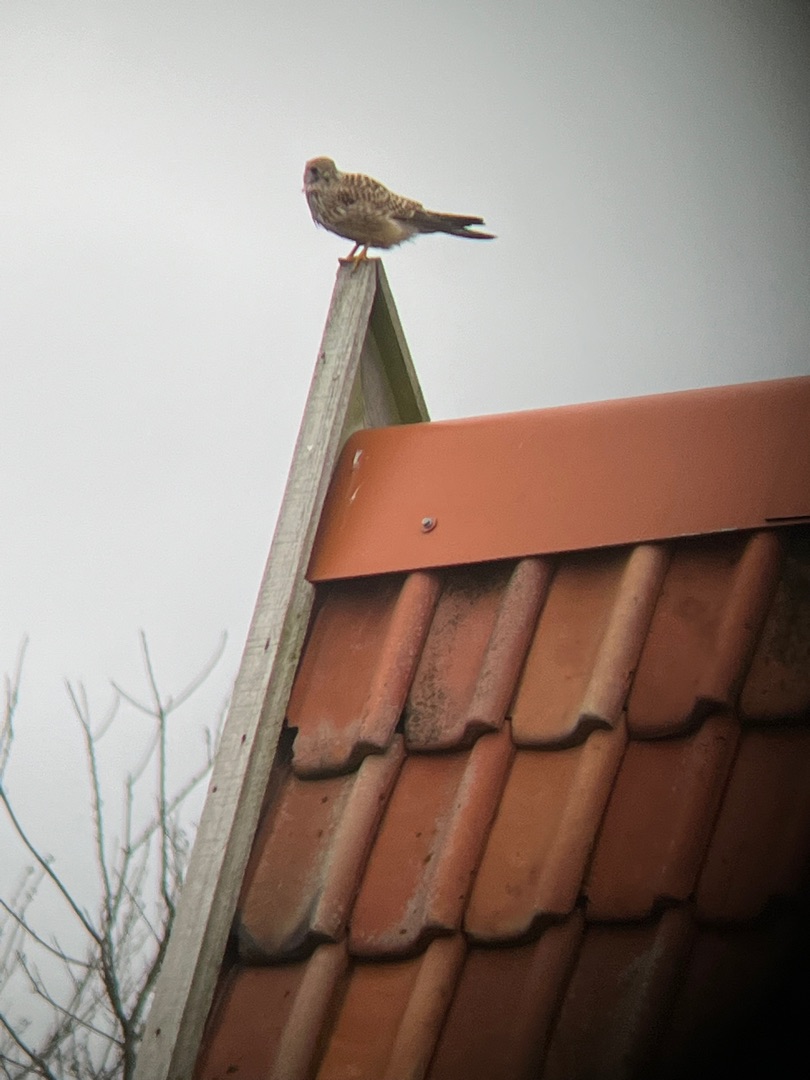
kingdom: Animalia
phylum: Chordata
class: Aves
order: Falconiformes
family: Falconidae
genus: Falco
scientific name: Falco tinnunculus
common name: Tårnfalk
